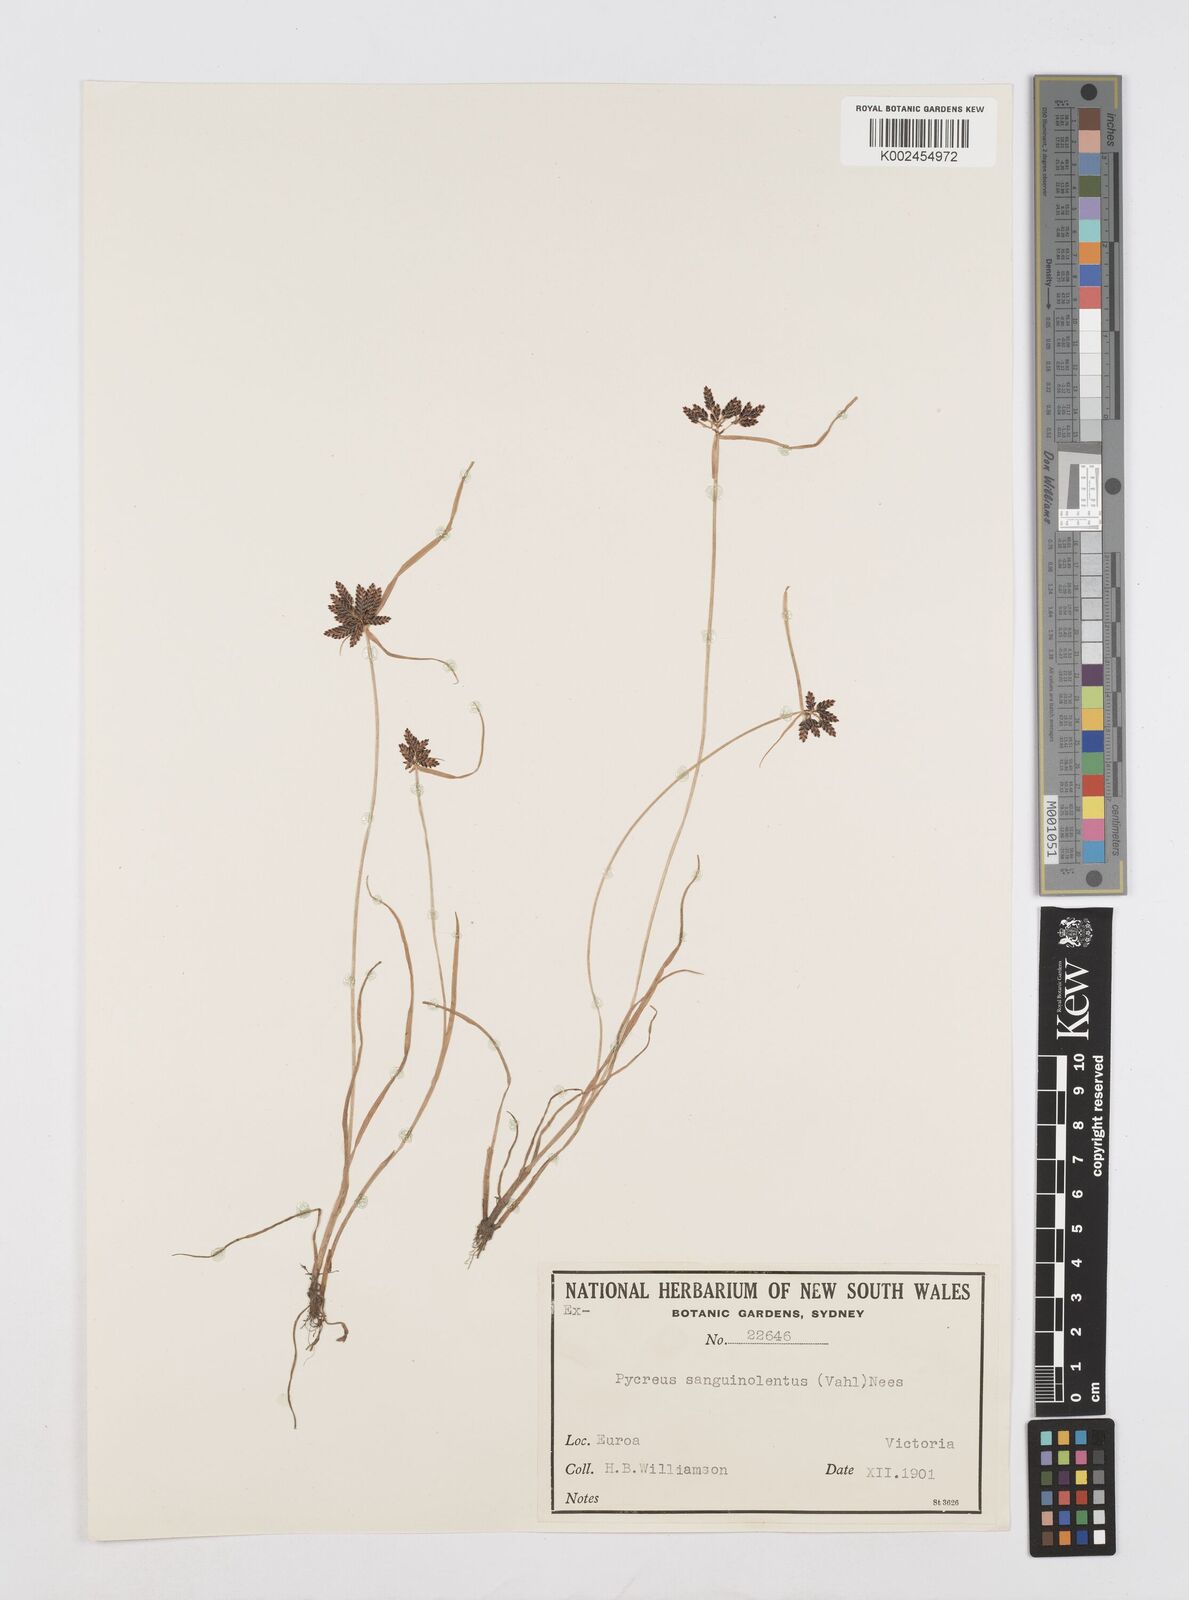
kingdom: Plantae
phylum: Tracheophyta
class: Liliopsida
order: Poales
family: Cyperaceae
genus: Cyperus
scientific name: Cyperus sanguinolentus
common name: Purpleglume flatsedge
